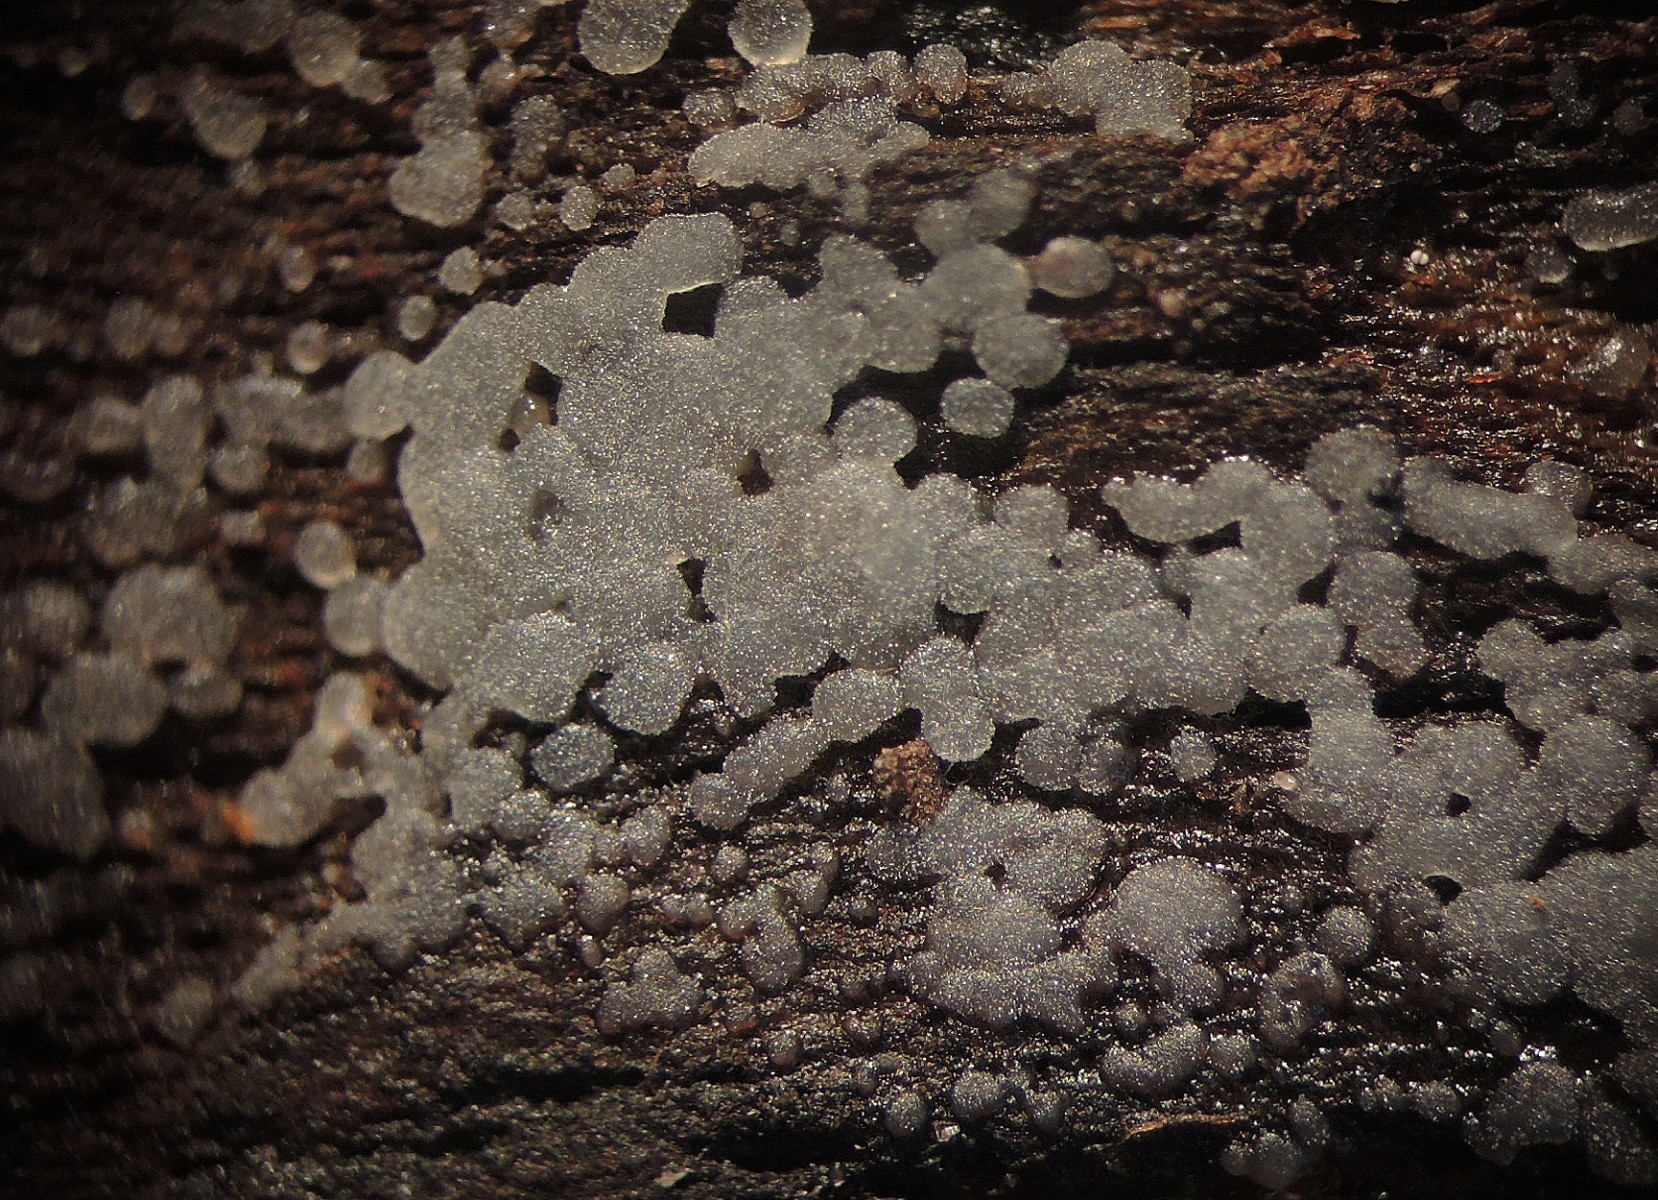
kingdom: Fungi
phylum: Basidiomycota
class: Agaricomycetes
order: Auriculariales
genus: Stypella
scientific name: Stypella grilletii
